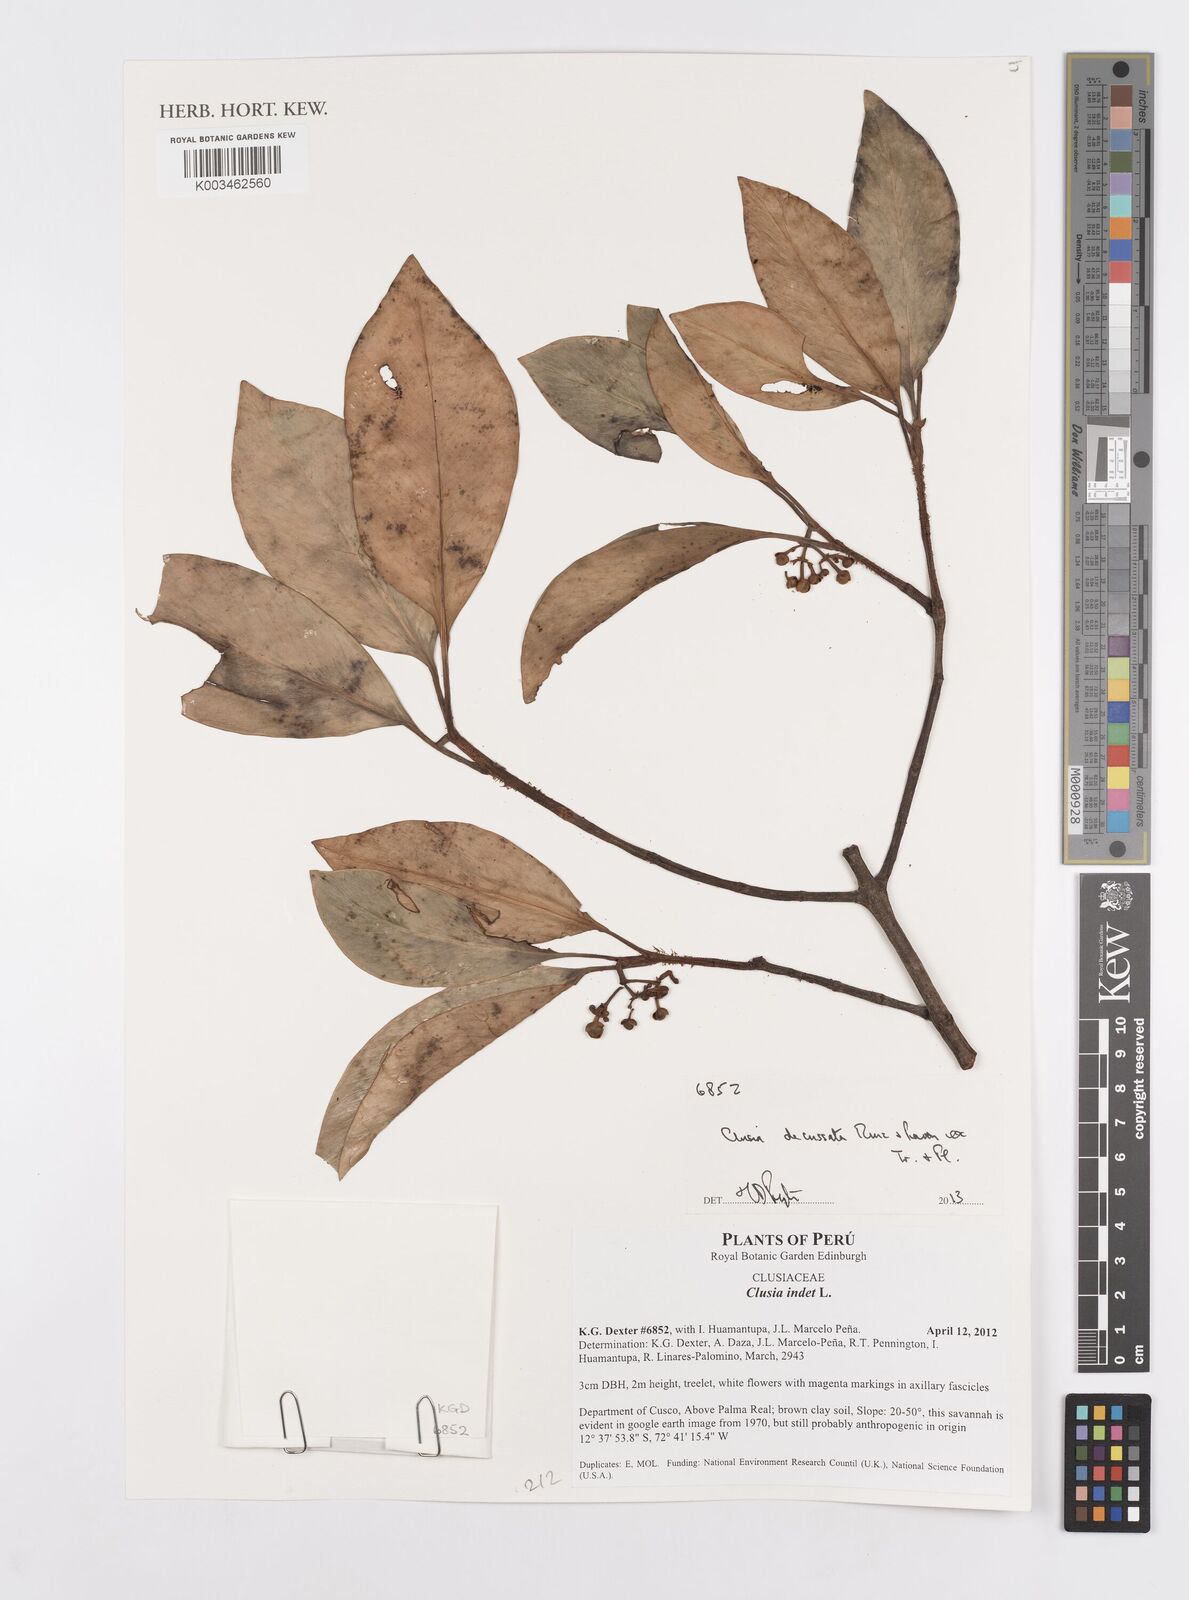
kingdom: Plantae
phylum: Tracheophyta
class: Magnoliopsida
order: Malpighiales
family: Clusiaceae
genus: Clusia
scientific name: Clusia decussata
